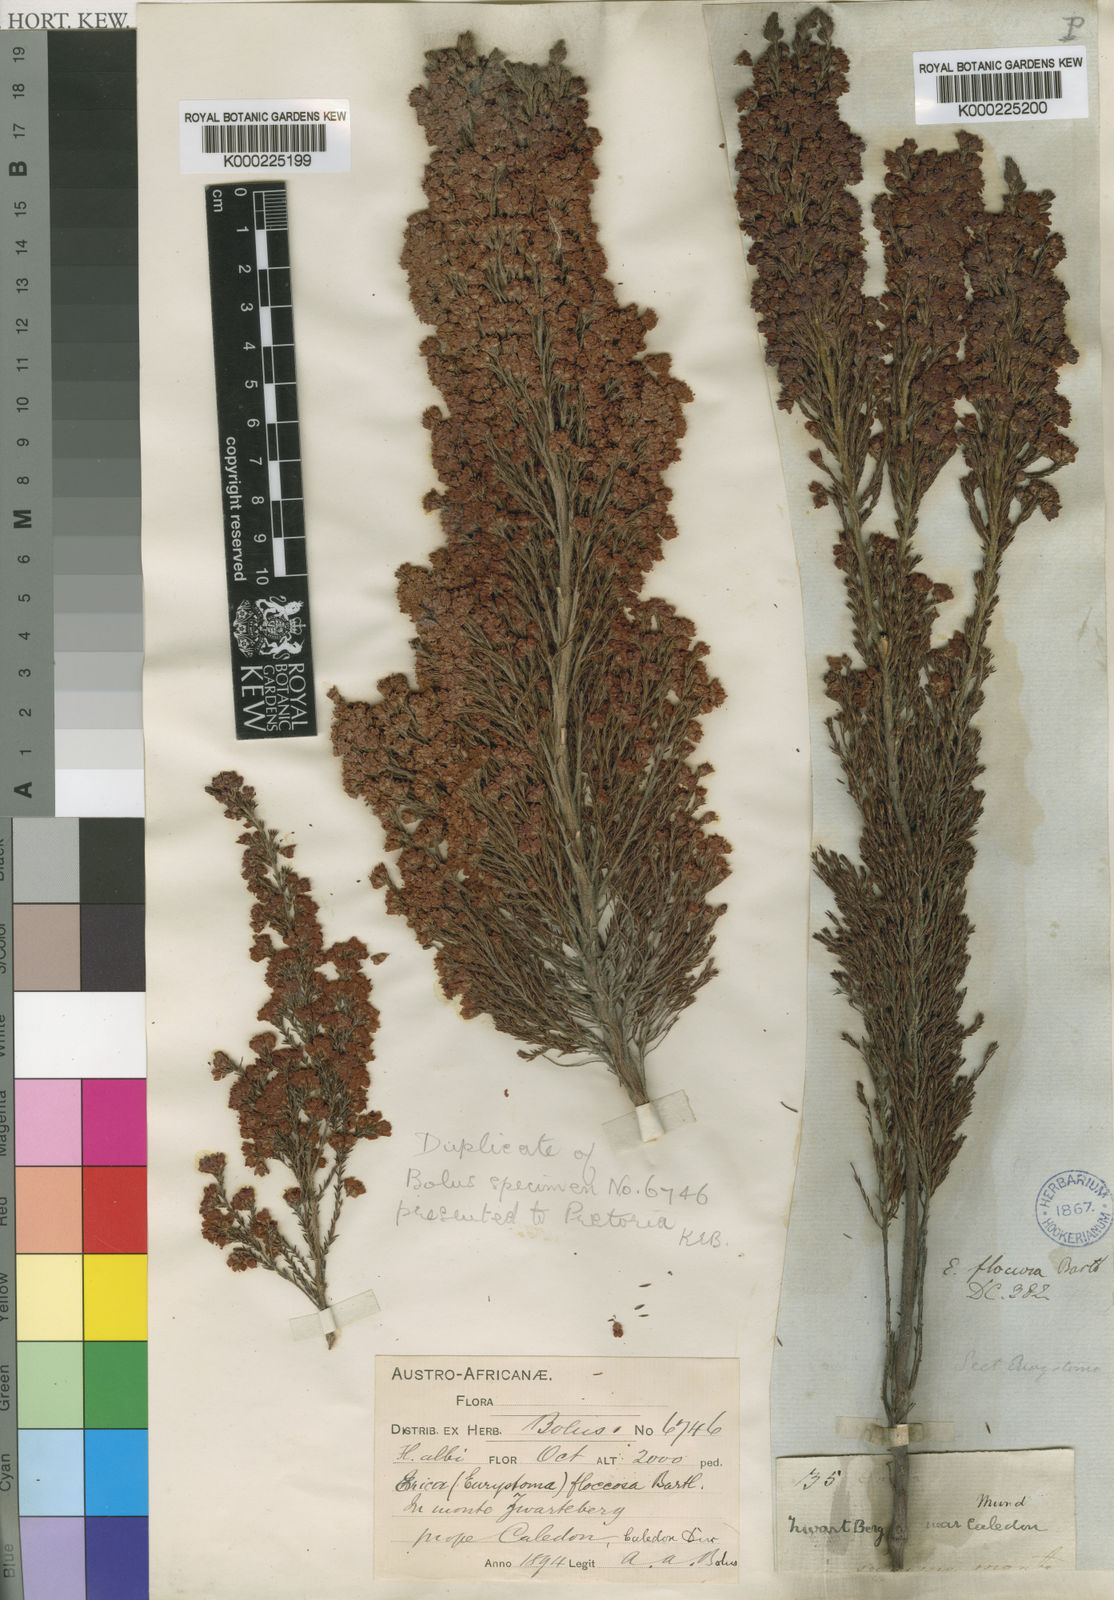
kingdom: Plantae
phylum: Tracheophyta
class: Magnoliopsida
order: Ericales
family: Ericaceae
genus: Erica
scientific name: Erica
